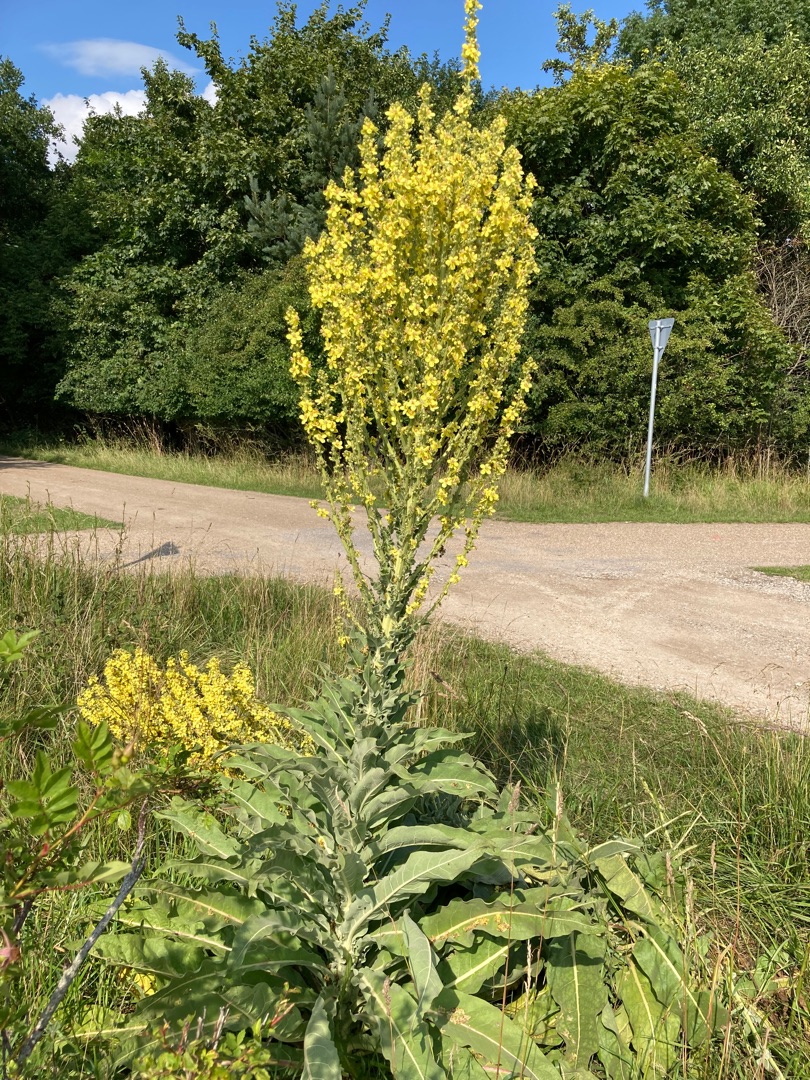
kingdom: Plantae
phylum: Tracheophyta
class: Magnoliopsida
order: Lamiales
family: Scrophulariaceae
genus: Verbascum
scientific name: Verbascum speciosum
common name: Kandelaber-kongelys
